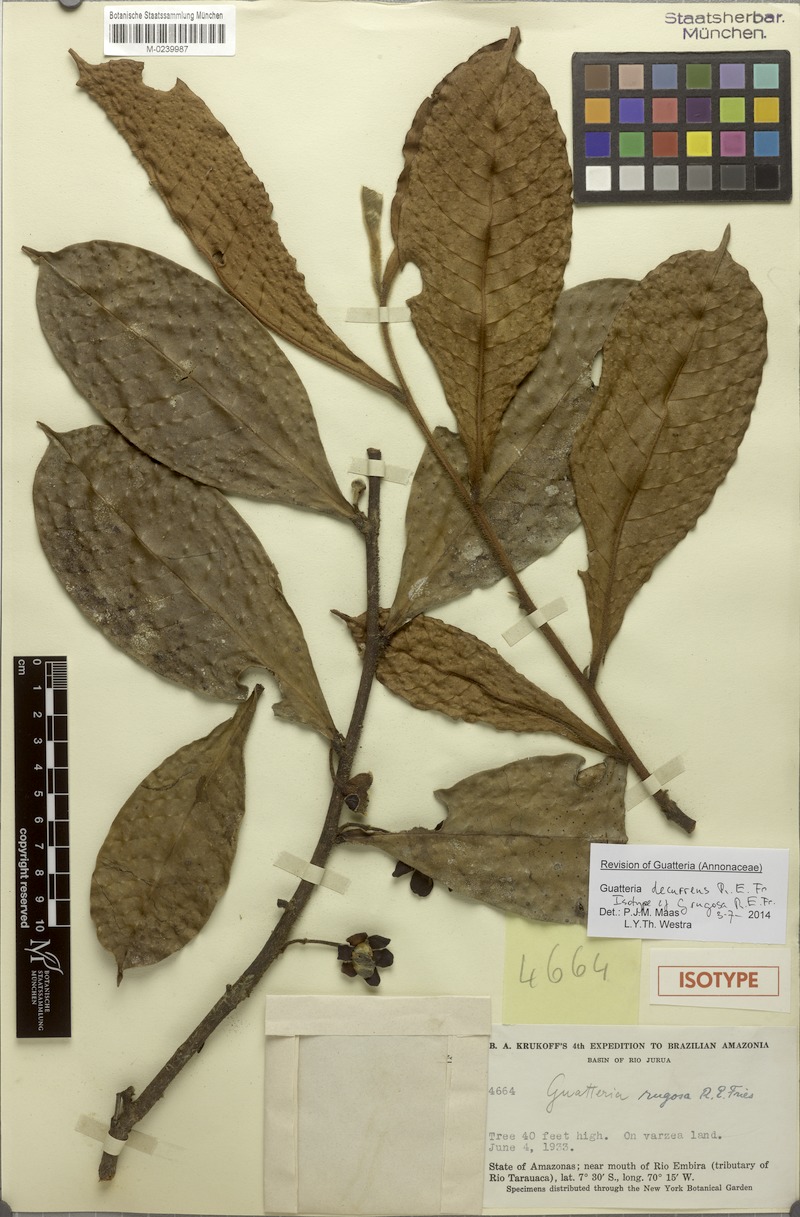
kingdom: Plantae
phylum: Tracheophyta
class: Magnoliopsida
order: Magnoliales
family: Annonaceae
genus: Guatteria
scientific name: Guatteria decurrens
